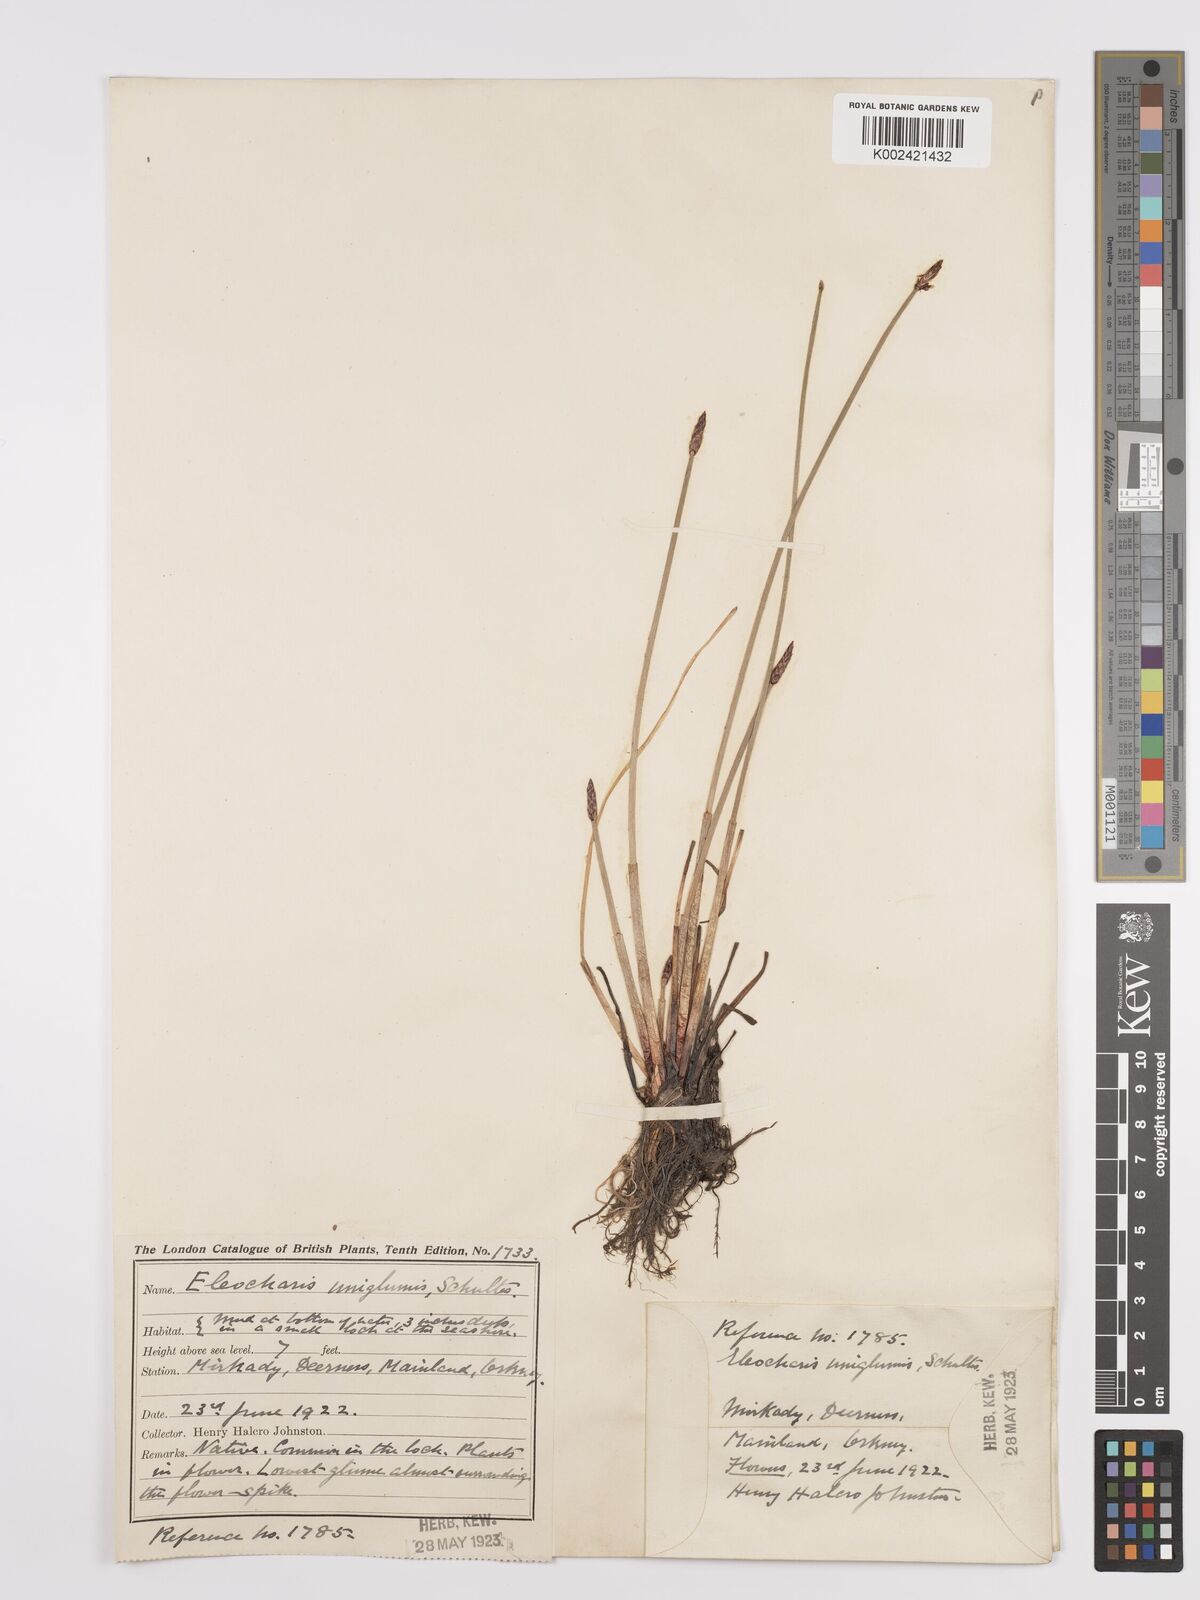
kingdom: Plantae
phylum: Tracheophyta
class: Liliopsida
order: Poales
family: Cyperaceae
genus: Eleocharis
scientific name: Eleocharis uniglumis
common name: Slender spike-rush
